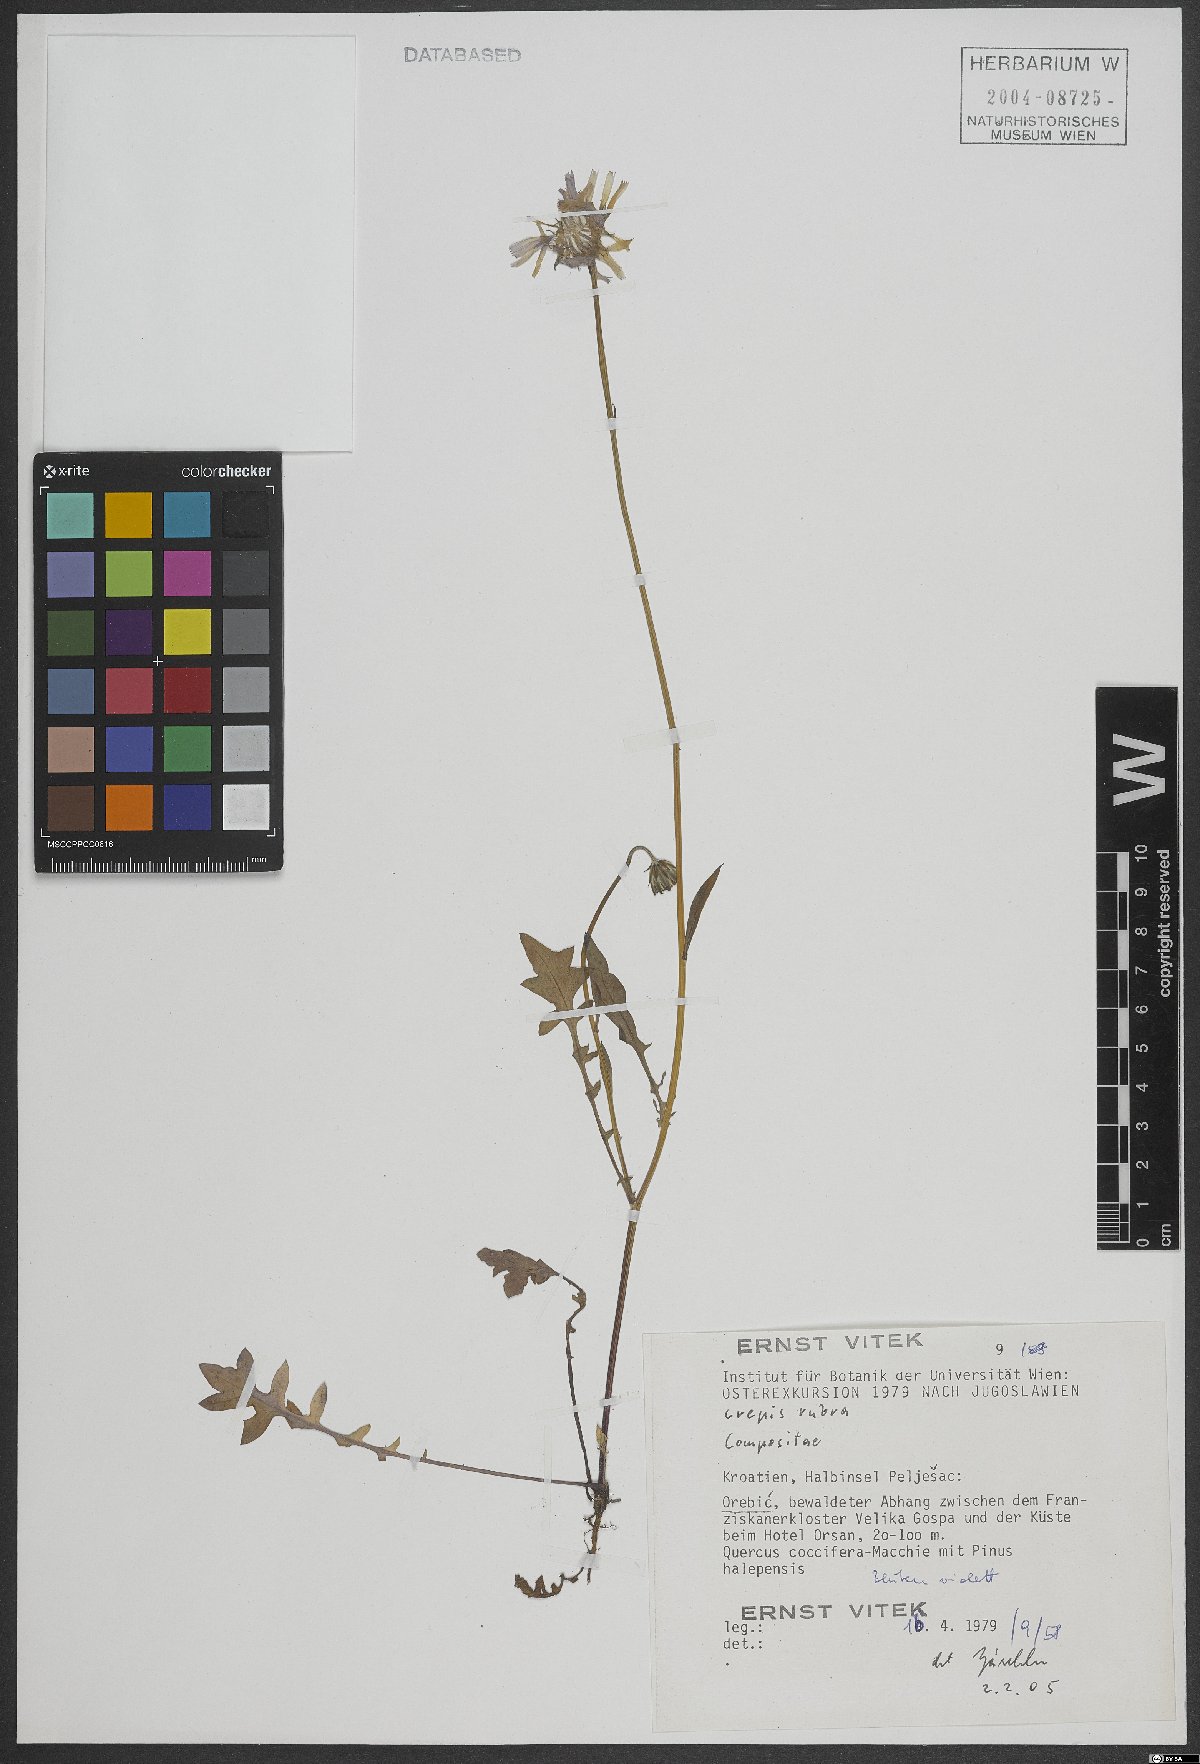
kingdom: Plantae
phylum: Tracheophyta
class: Magnoliopsida
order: Asterales
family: Asteraceae
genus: Crepis
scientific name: Crepis rubra
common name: Pink hawk's-beard
